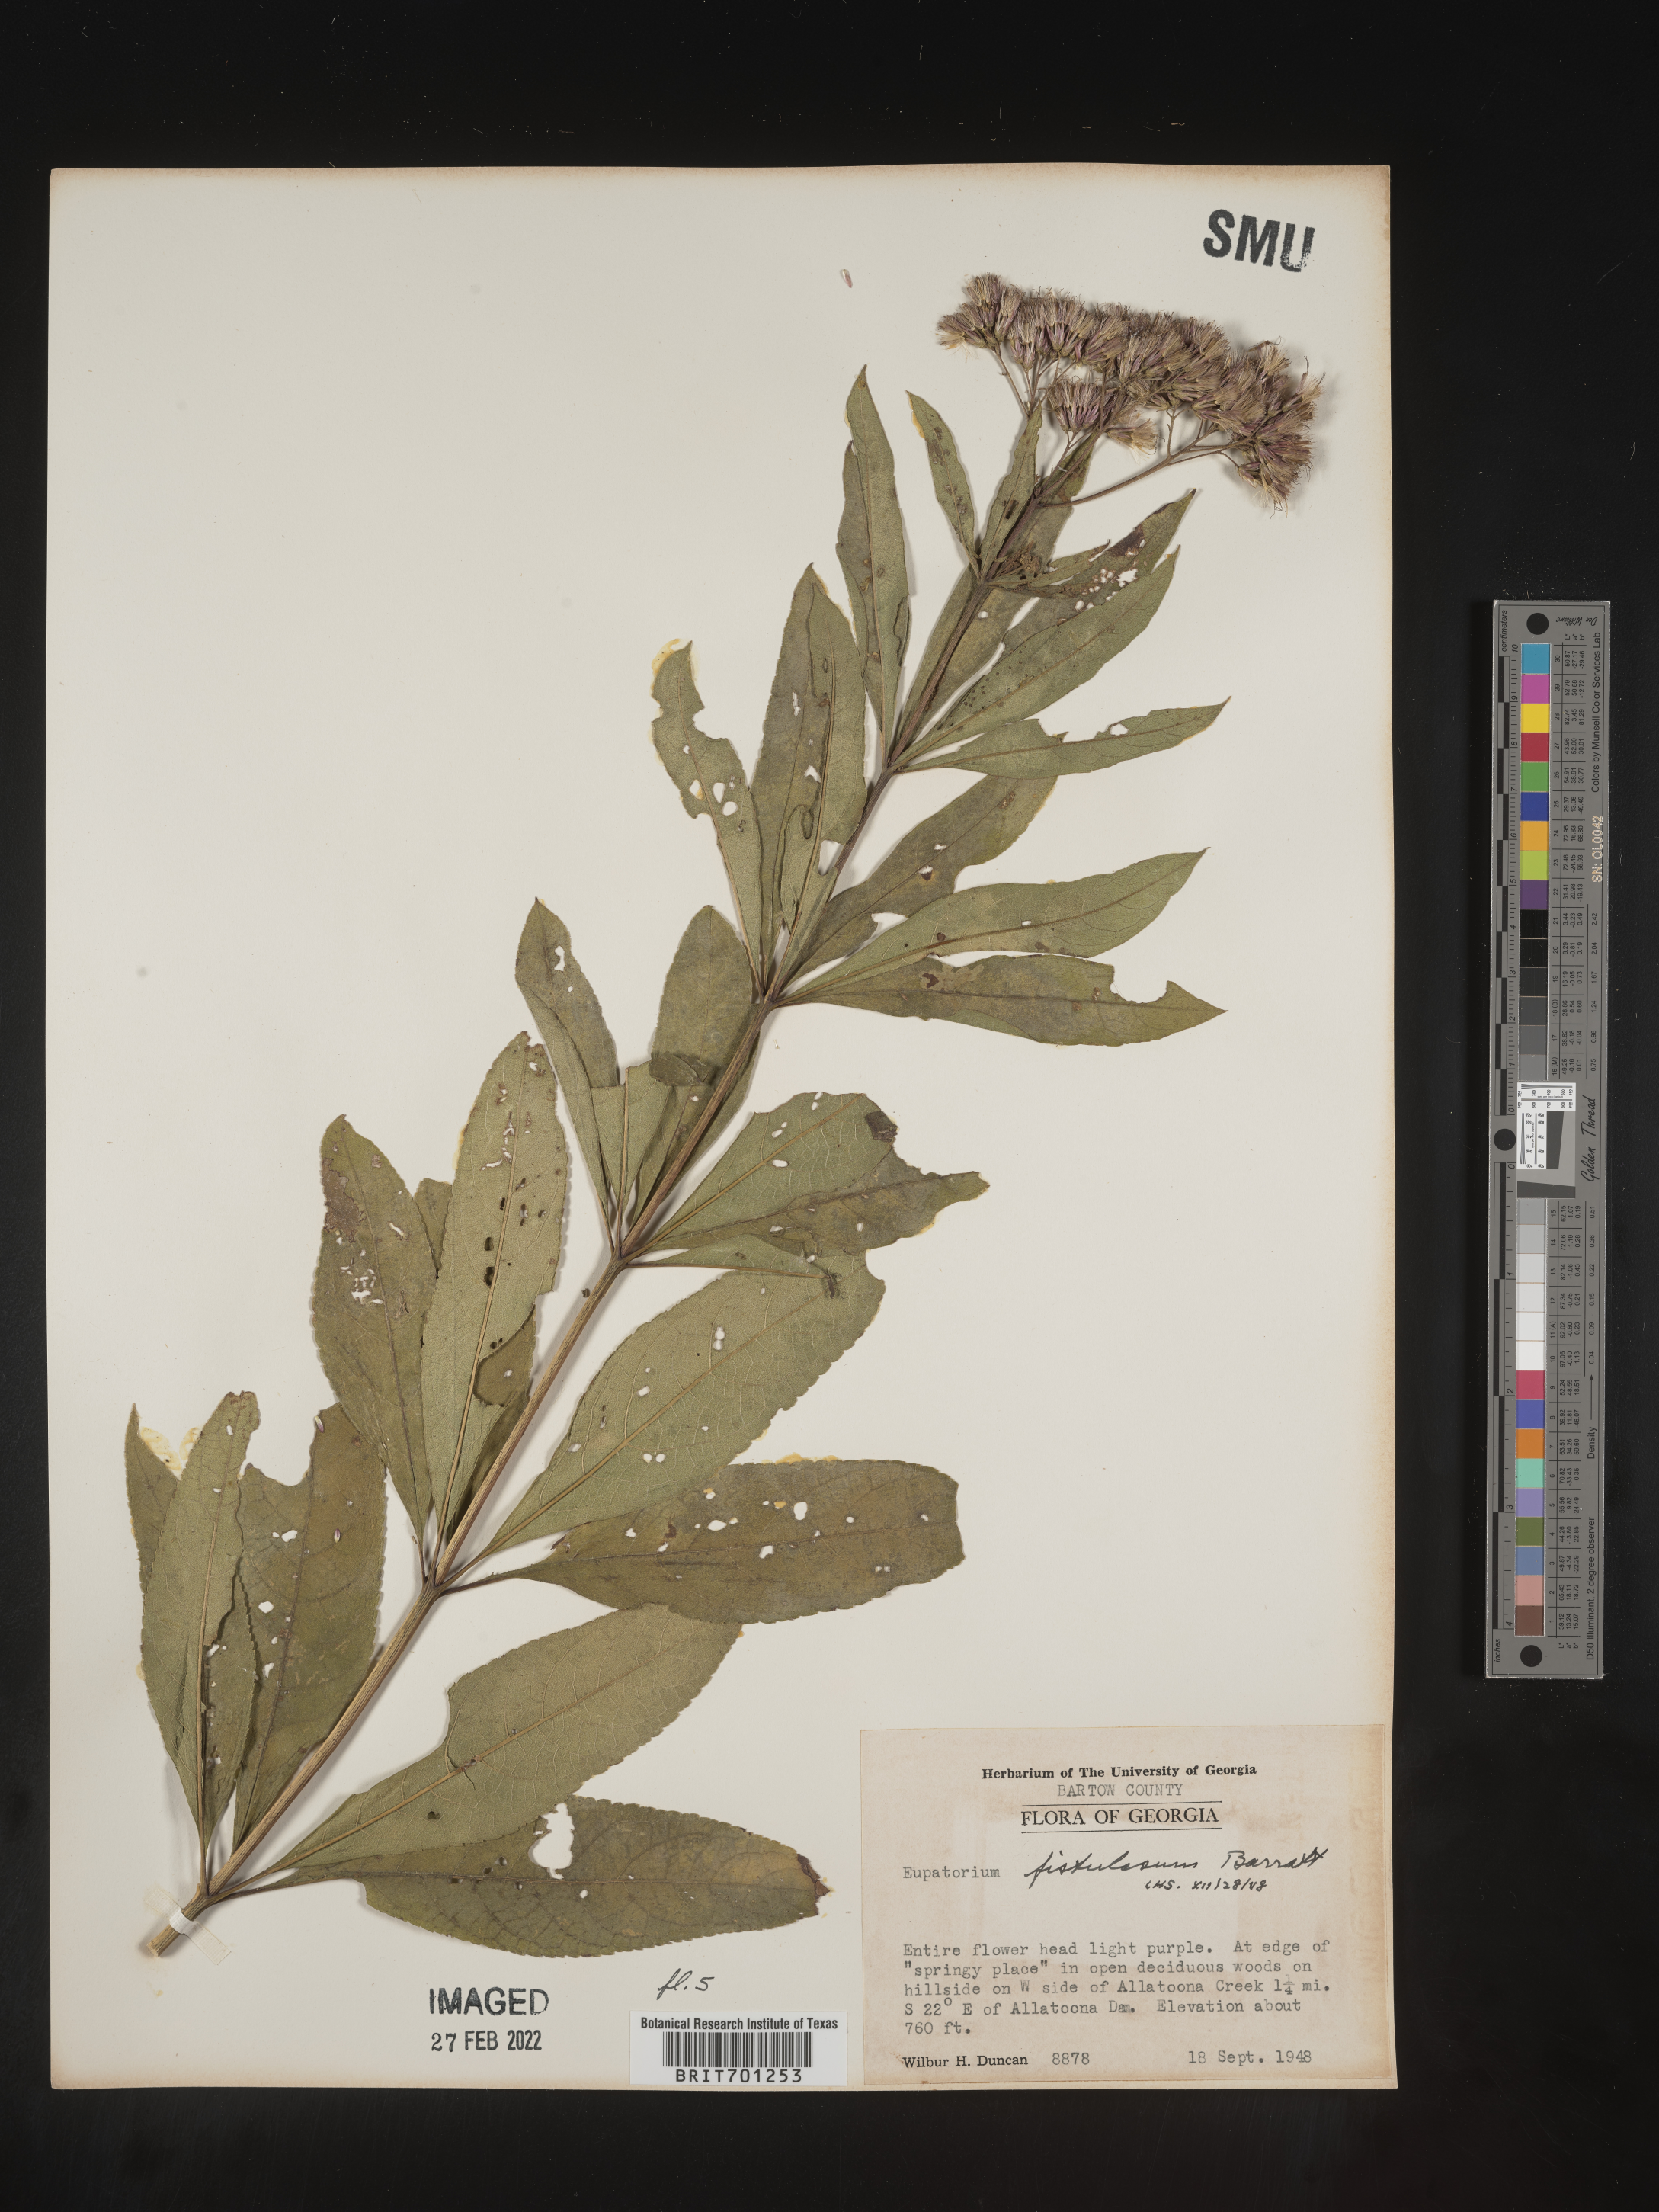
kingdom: Plantae
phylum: Tracheophyta
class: Magnoliopsida
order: Asterales
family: Asteraceae
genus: Eutrochium
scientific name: Eutrochium fistulosum
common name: Trumpetweed
